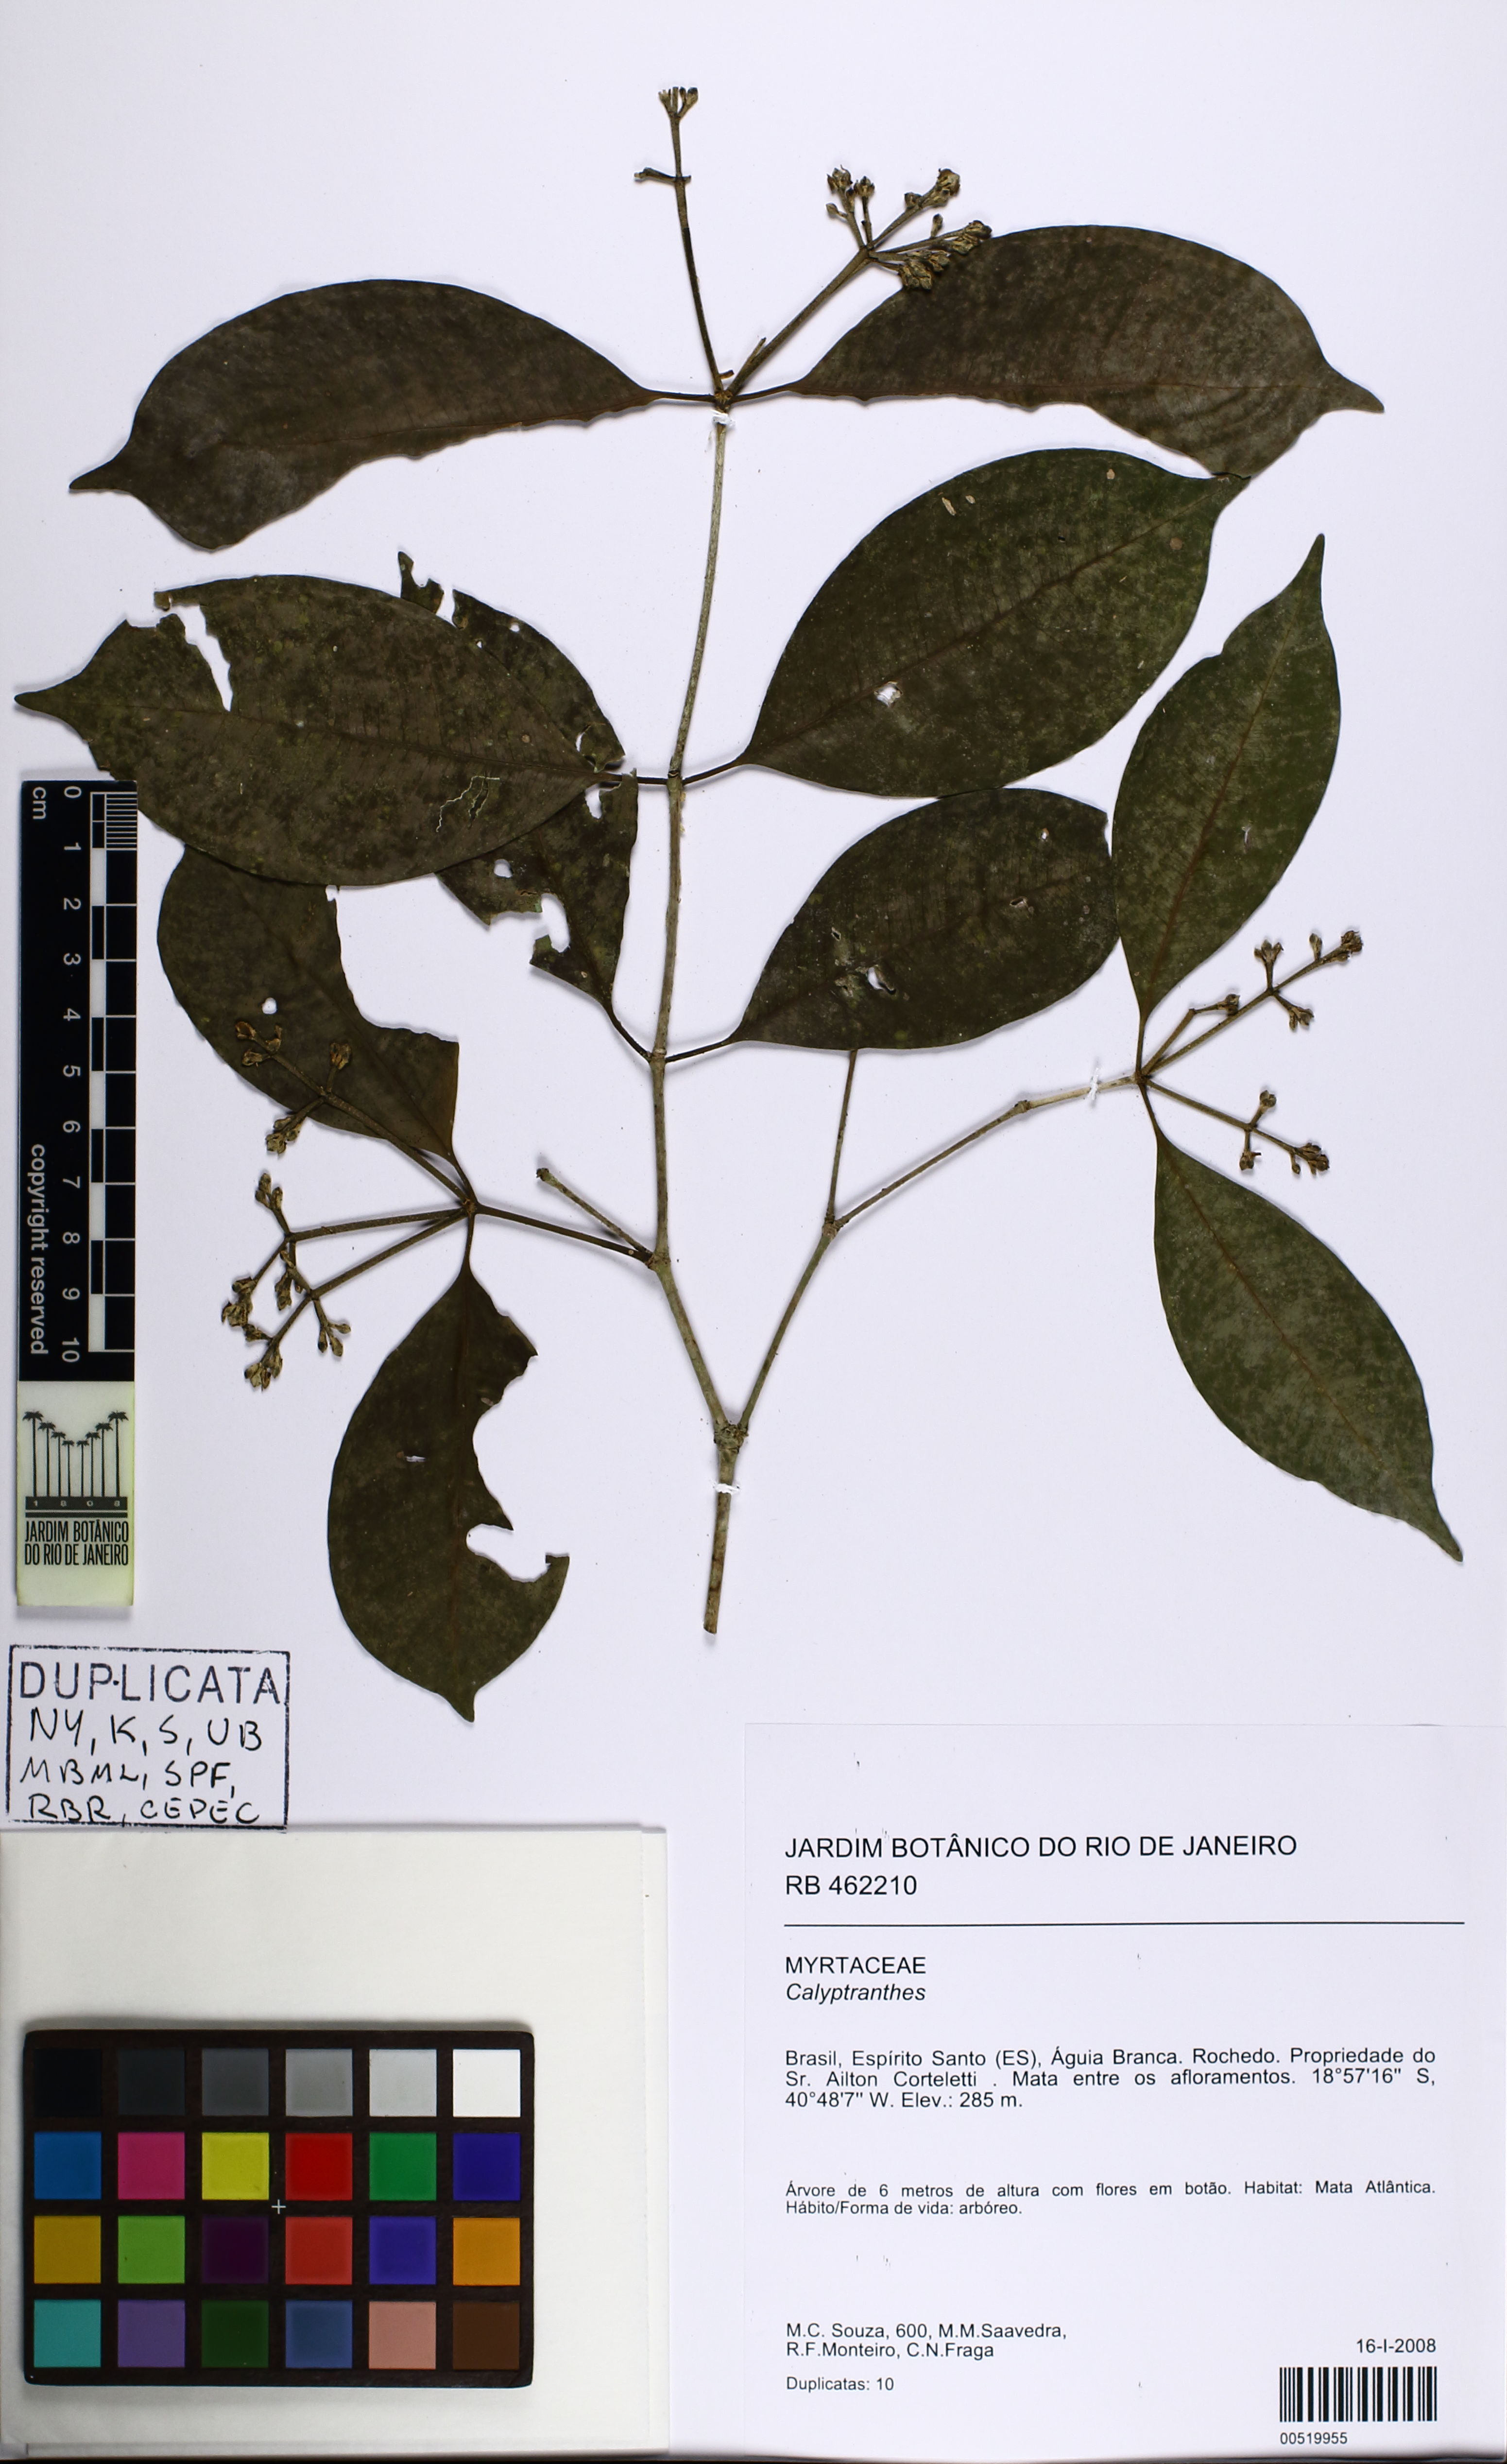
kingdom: Plantae
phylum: Tracheophyta
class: Magnoliopsida
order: Myrtales
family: Myrtaceae
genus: Calyptranthes
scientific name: Calyptranthes
